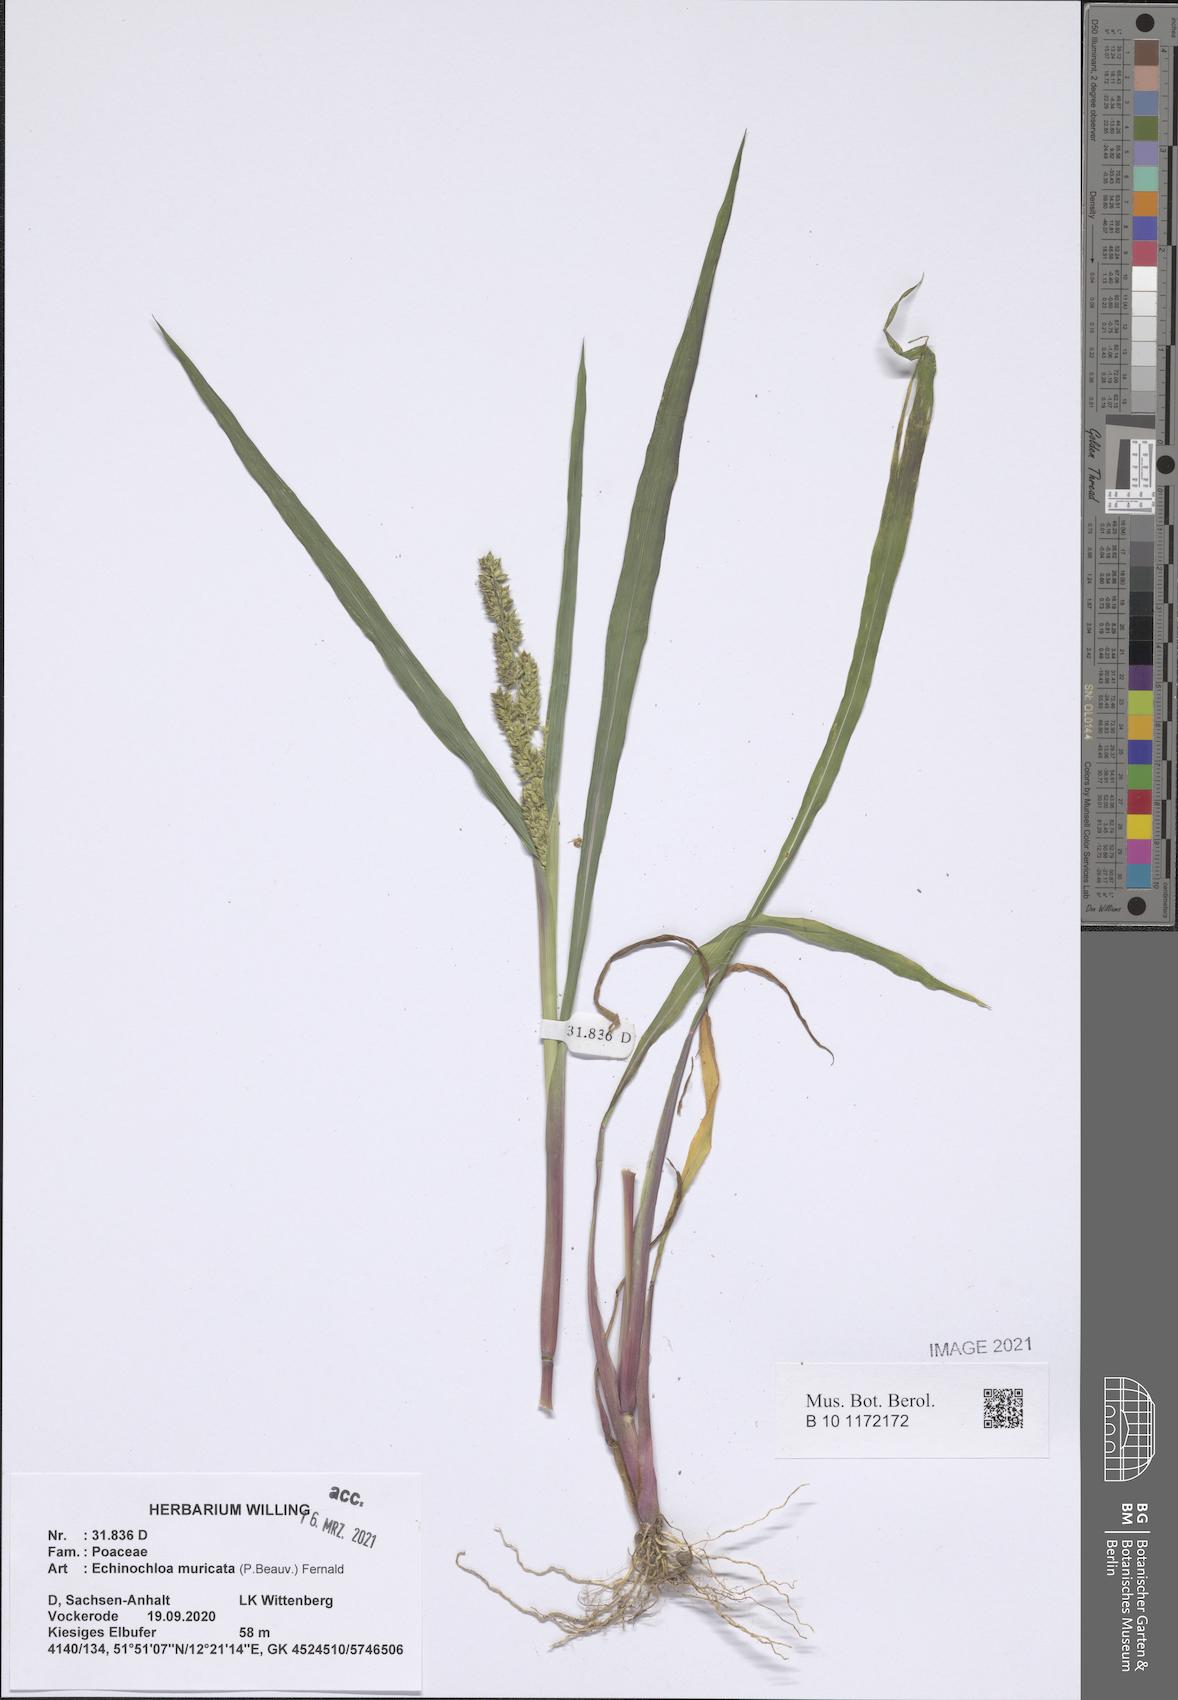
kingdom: Plantae
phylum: Tracheophyta
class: Liliopsida
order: Poales
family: Poaceae
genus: Echinochloa
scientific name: Echinochloa muricata
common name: American barnyard grass
